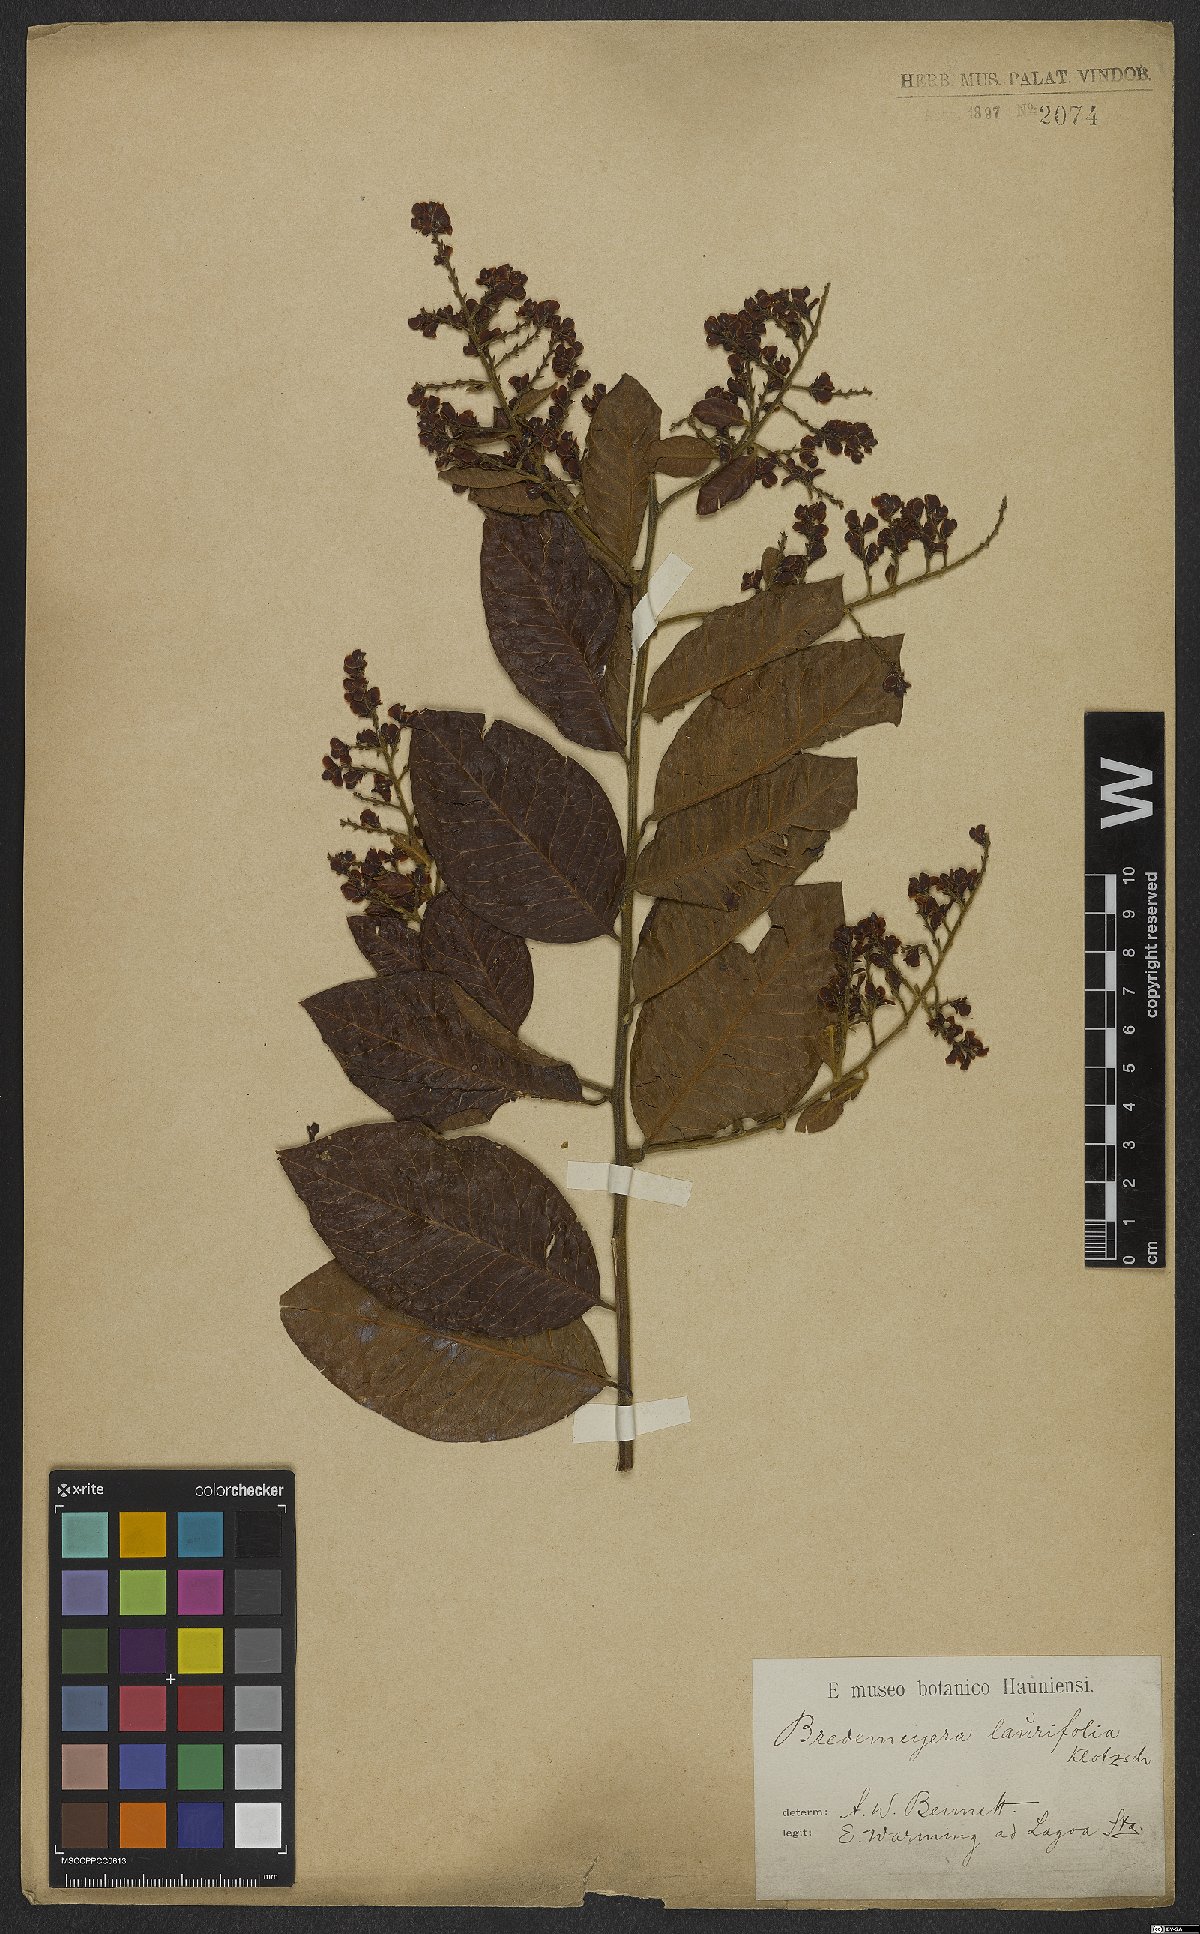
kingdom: Plantae
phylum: Tracheophyta
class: Magnoliopsida
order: Fabales
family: Polygalaceae
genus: Bredemeyera
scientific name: Bredemeyera laurifolia
